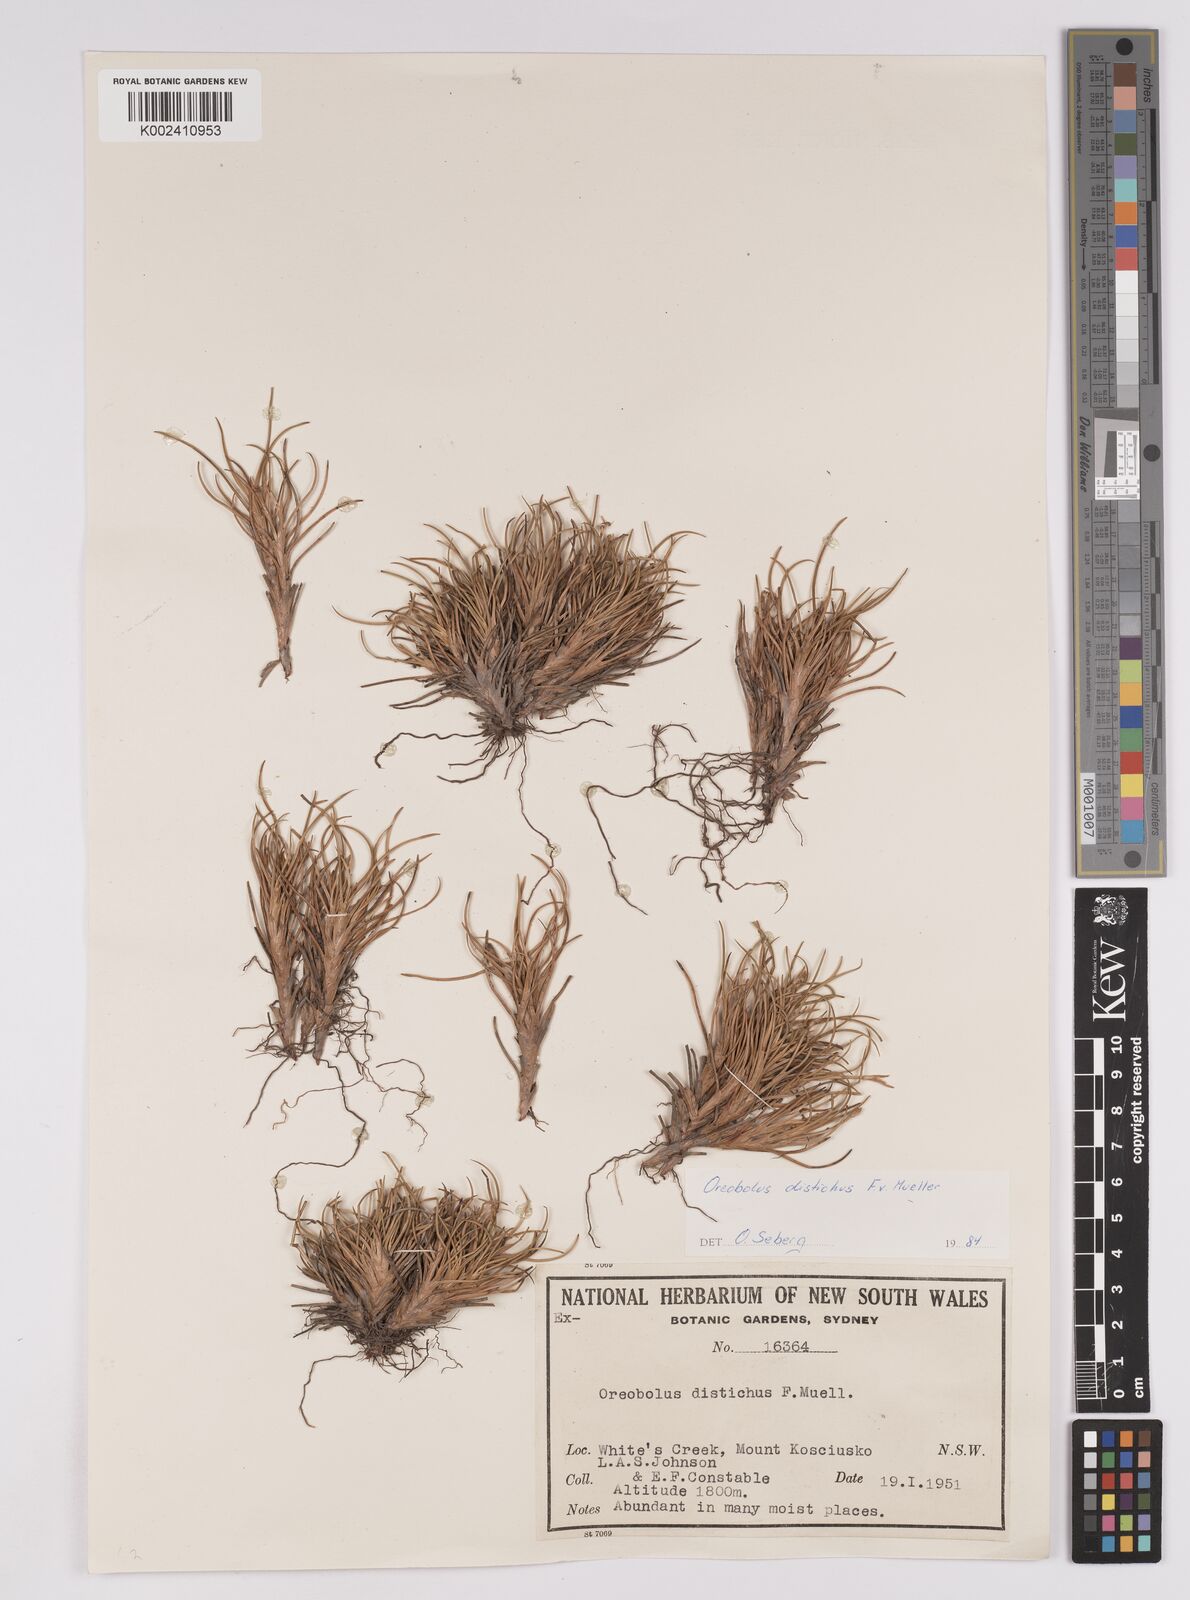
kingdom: Plantae
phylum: Tracheophyta
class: Liliopsida
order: Poales
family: Cyperaceae
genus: Oreobolus
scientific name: Oreobolus distichus
